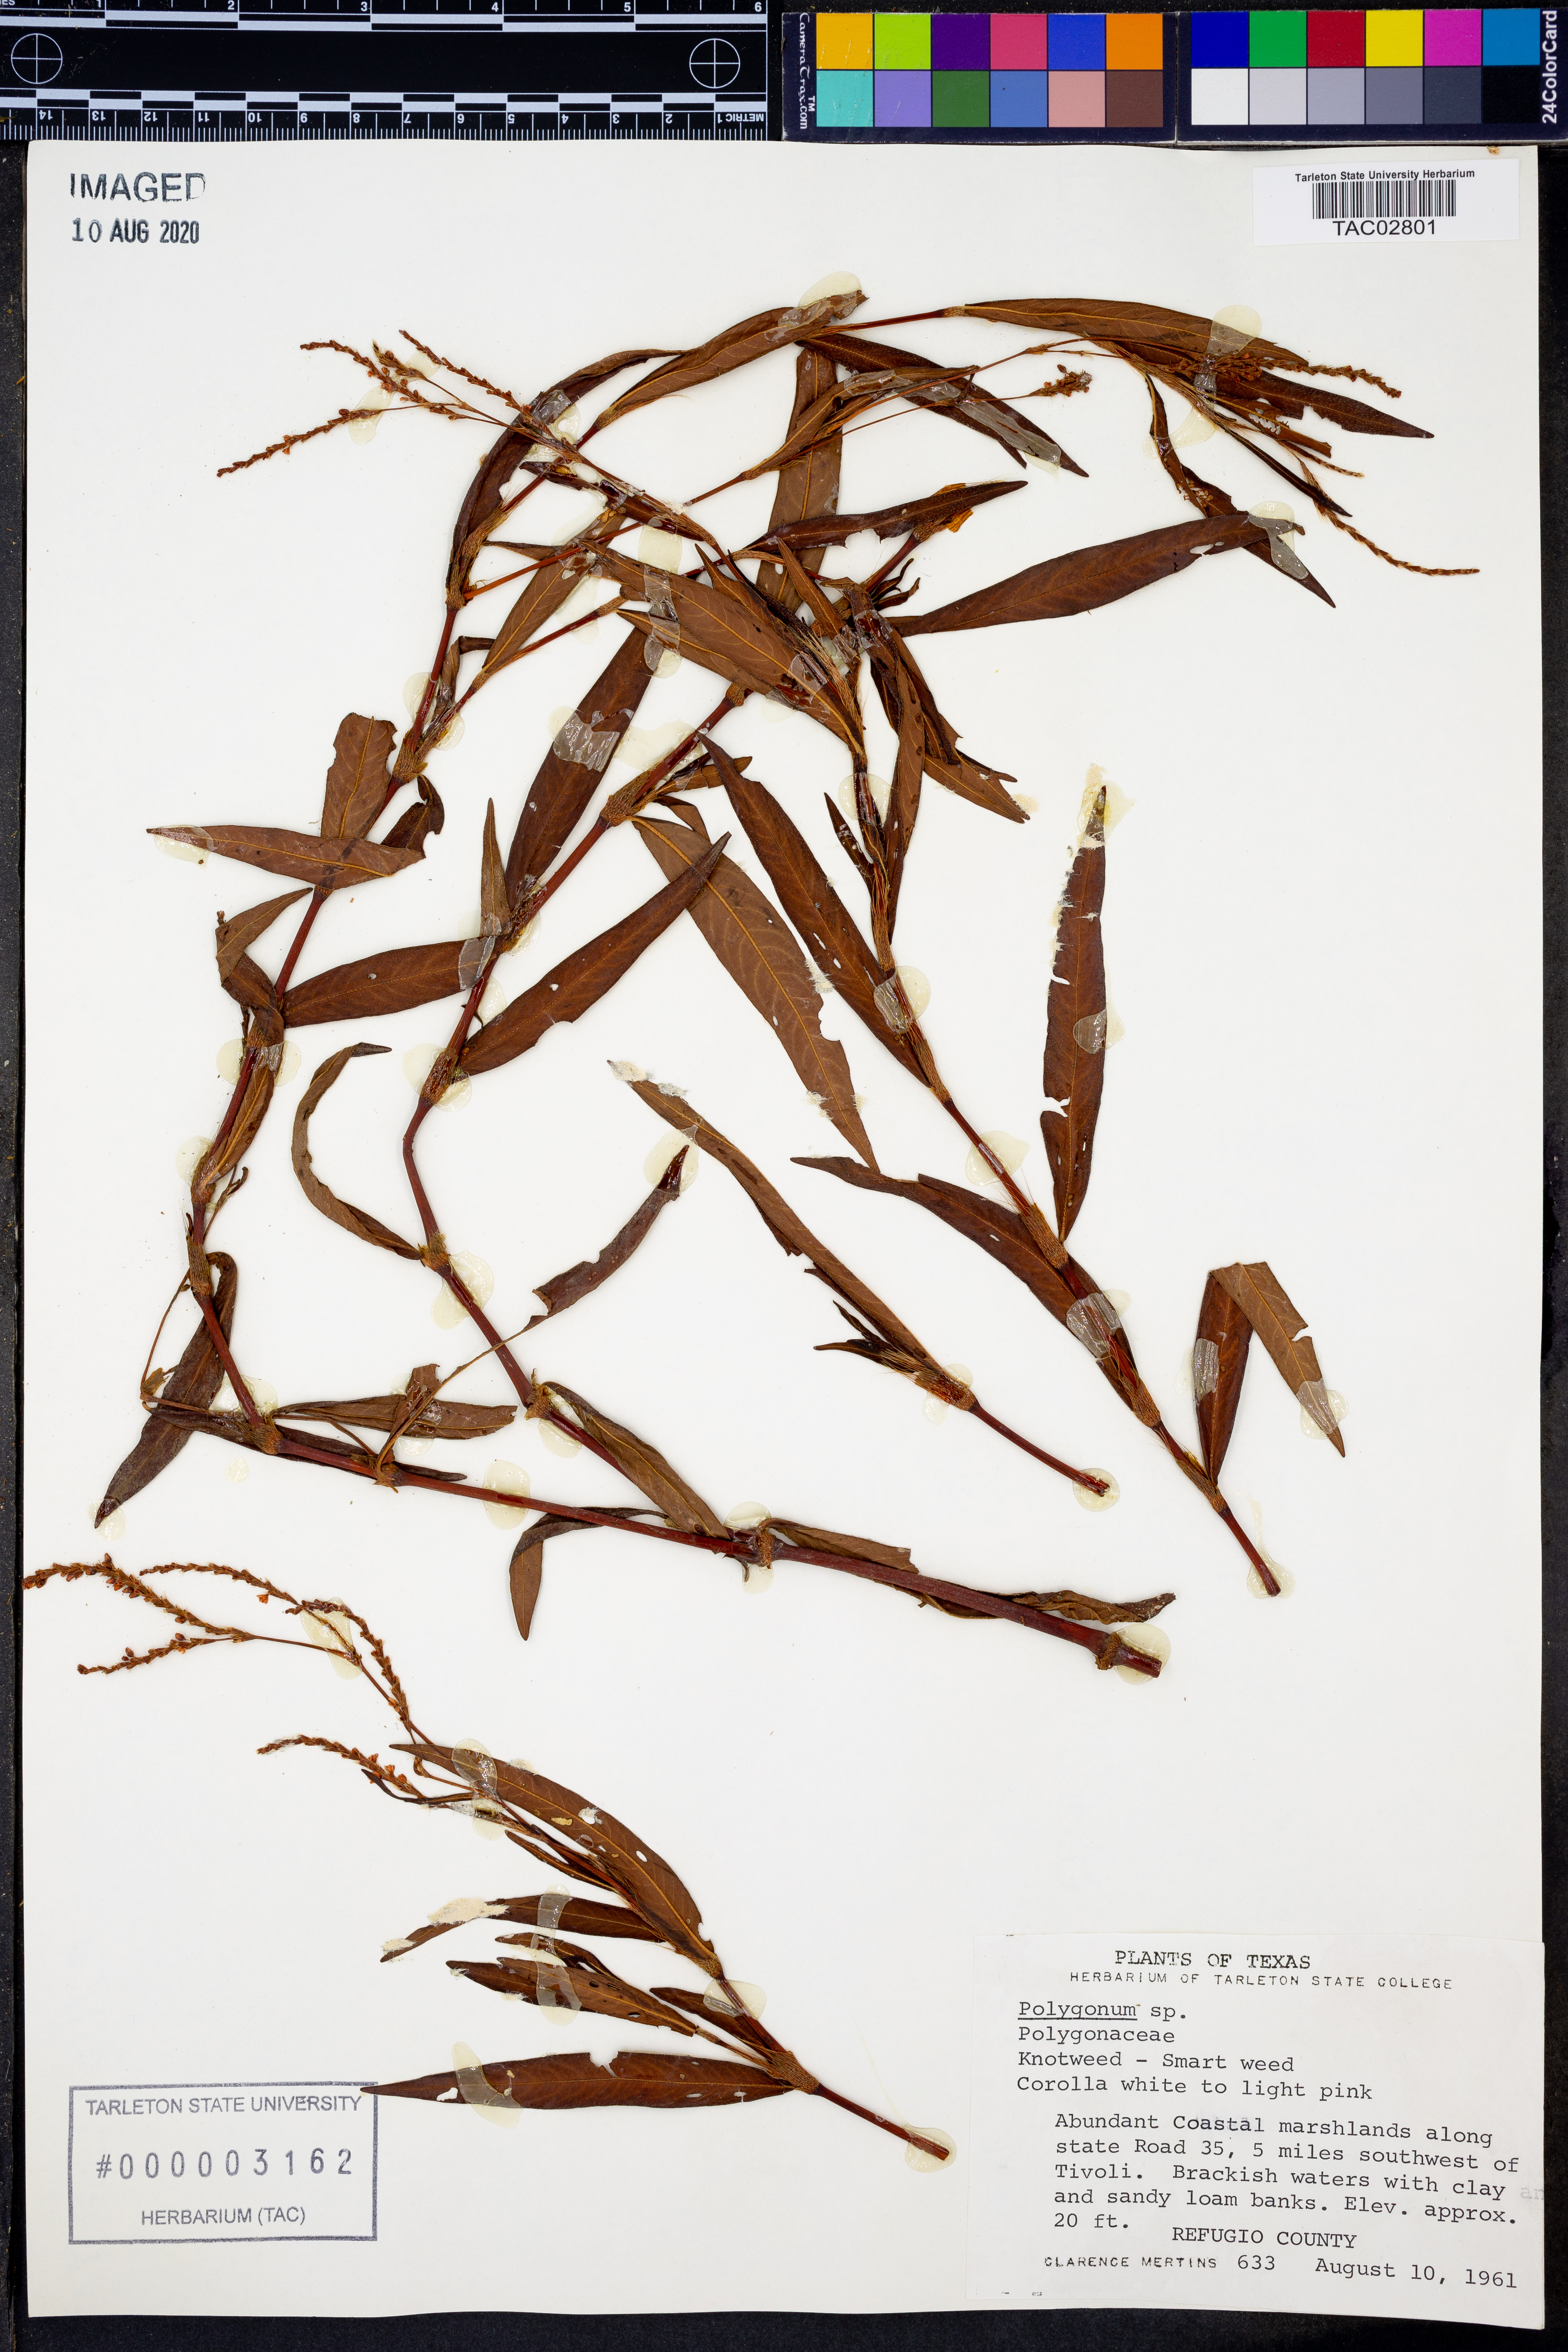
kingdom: Plantae
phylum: Tracheophyta
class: Magnoliopsida
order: Caryophyllales
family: Polygonaceae
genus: Polygonum
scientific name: Polygonum
